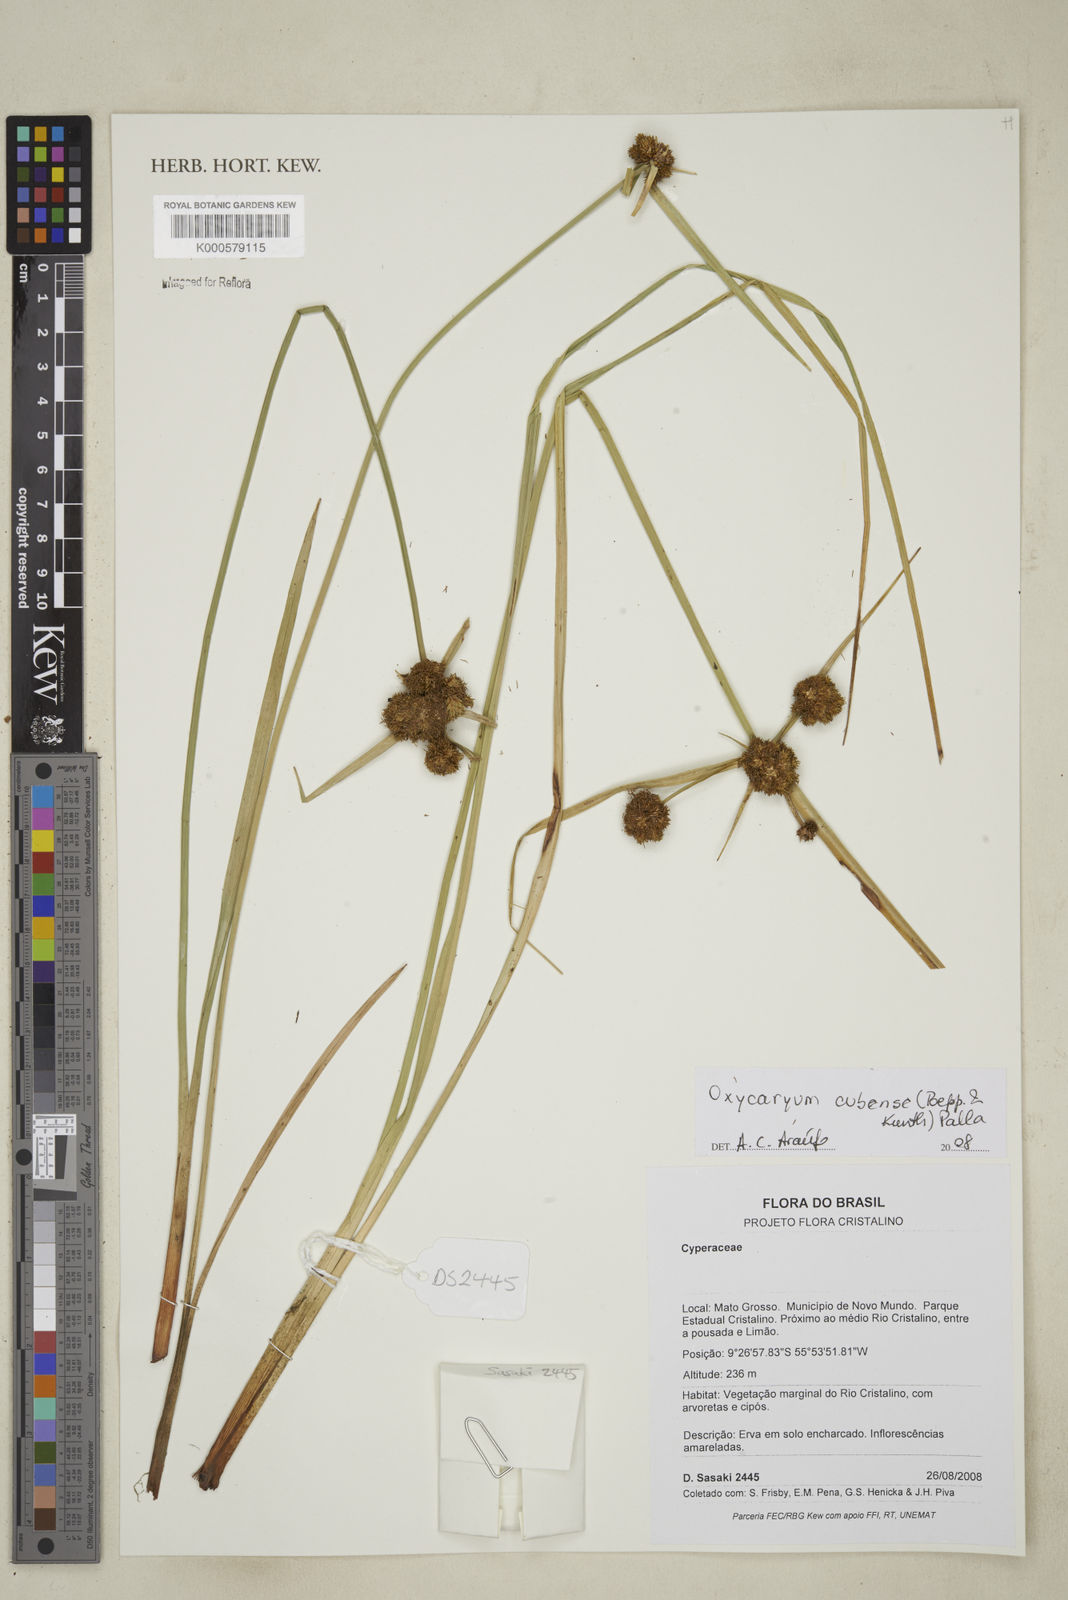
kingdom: Plantae
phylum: Tracheophyta
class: Liliopsida
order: Poales
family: Cyperaceae
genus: Cyperus
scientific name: Cyperus blepharoleptos
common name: Cuban bulrush
